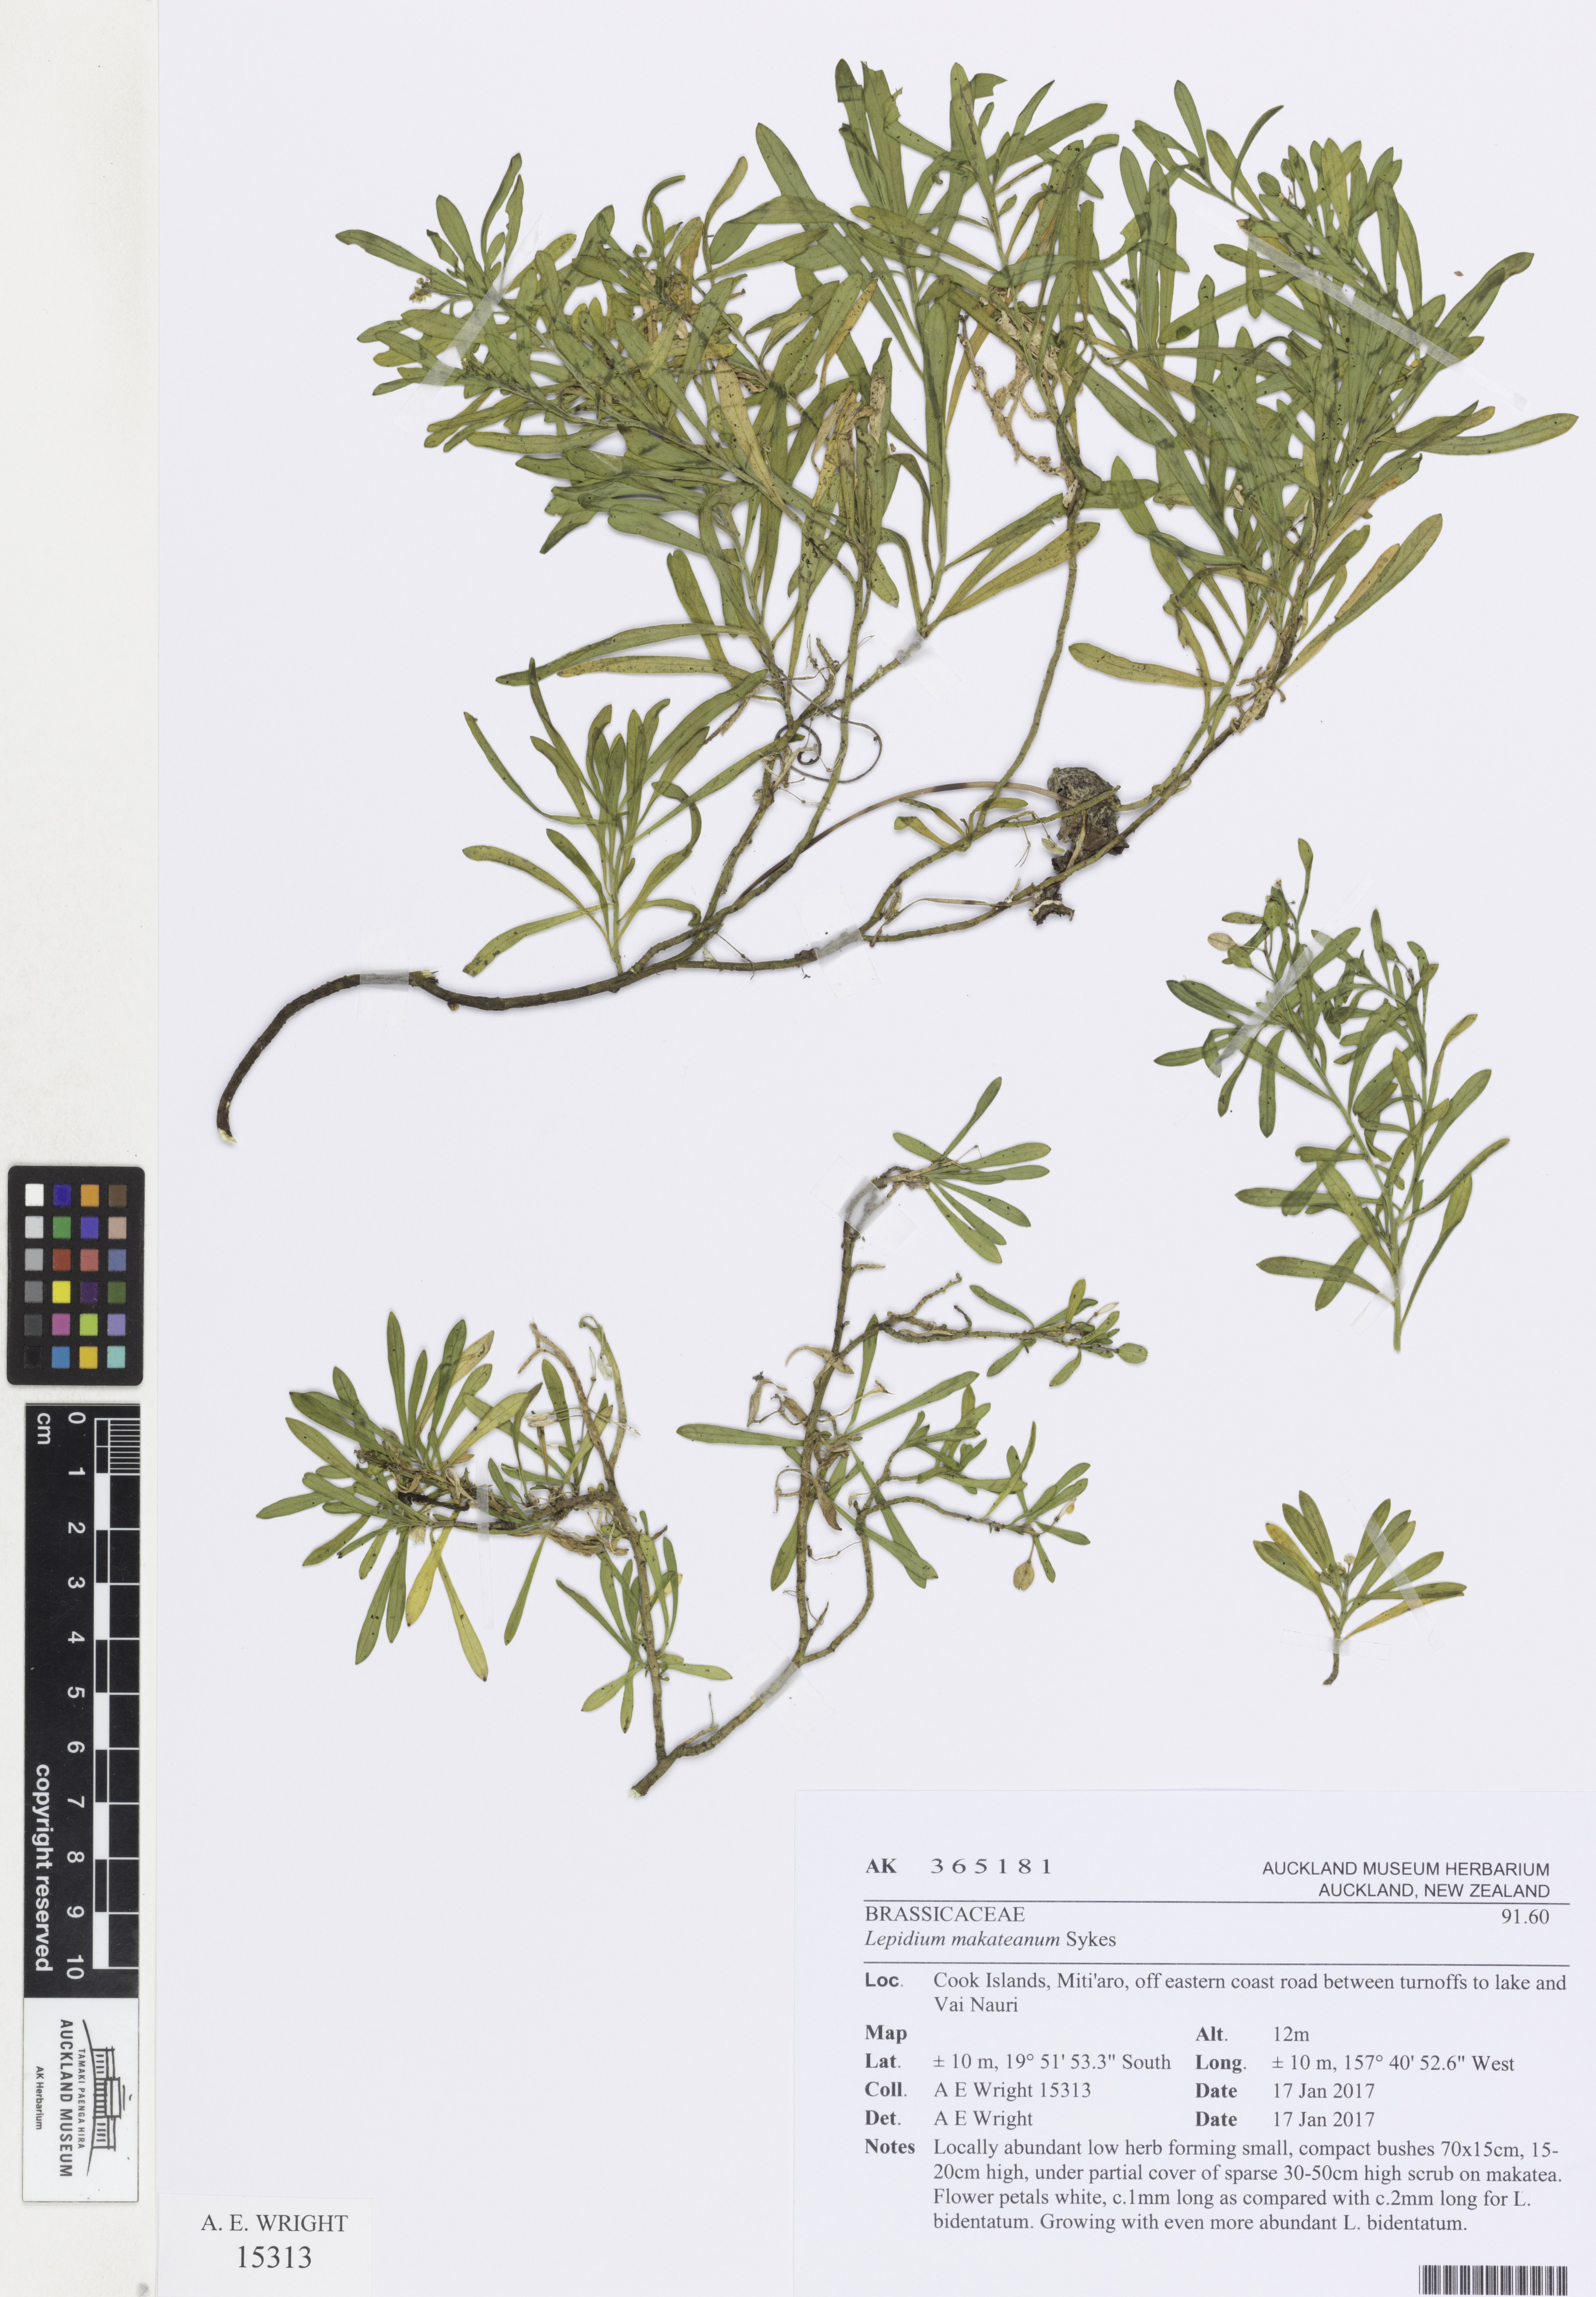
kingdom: Plantae
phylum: Tracheophyta
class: Magnoliopsida
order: Brassicales
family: Brassicaceae
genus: Lepidium
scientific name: Lepidium makateanum
